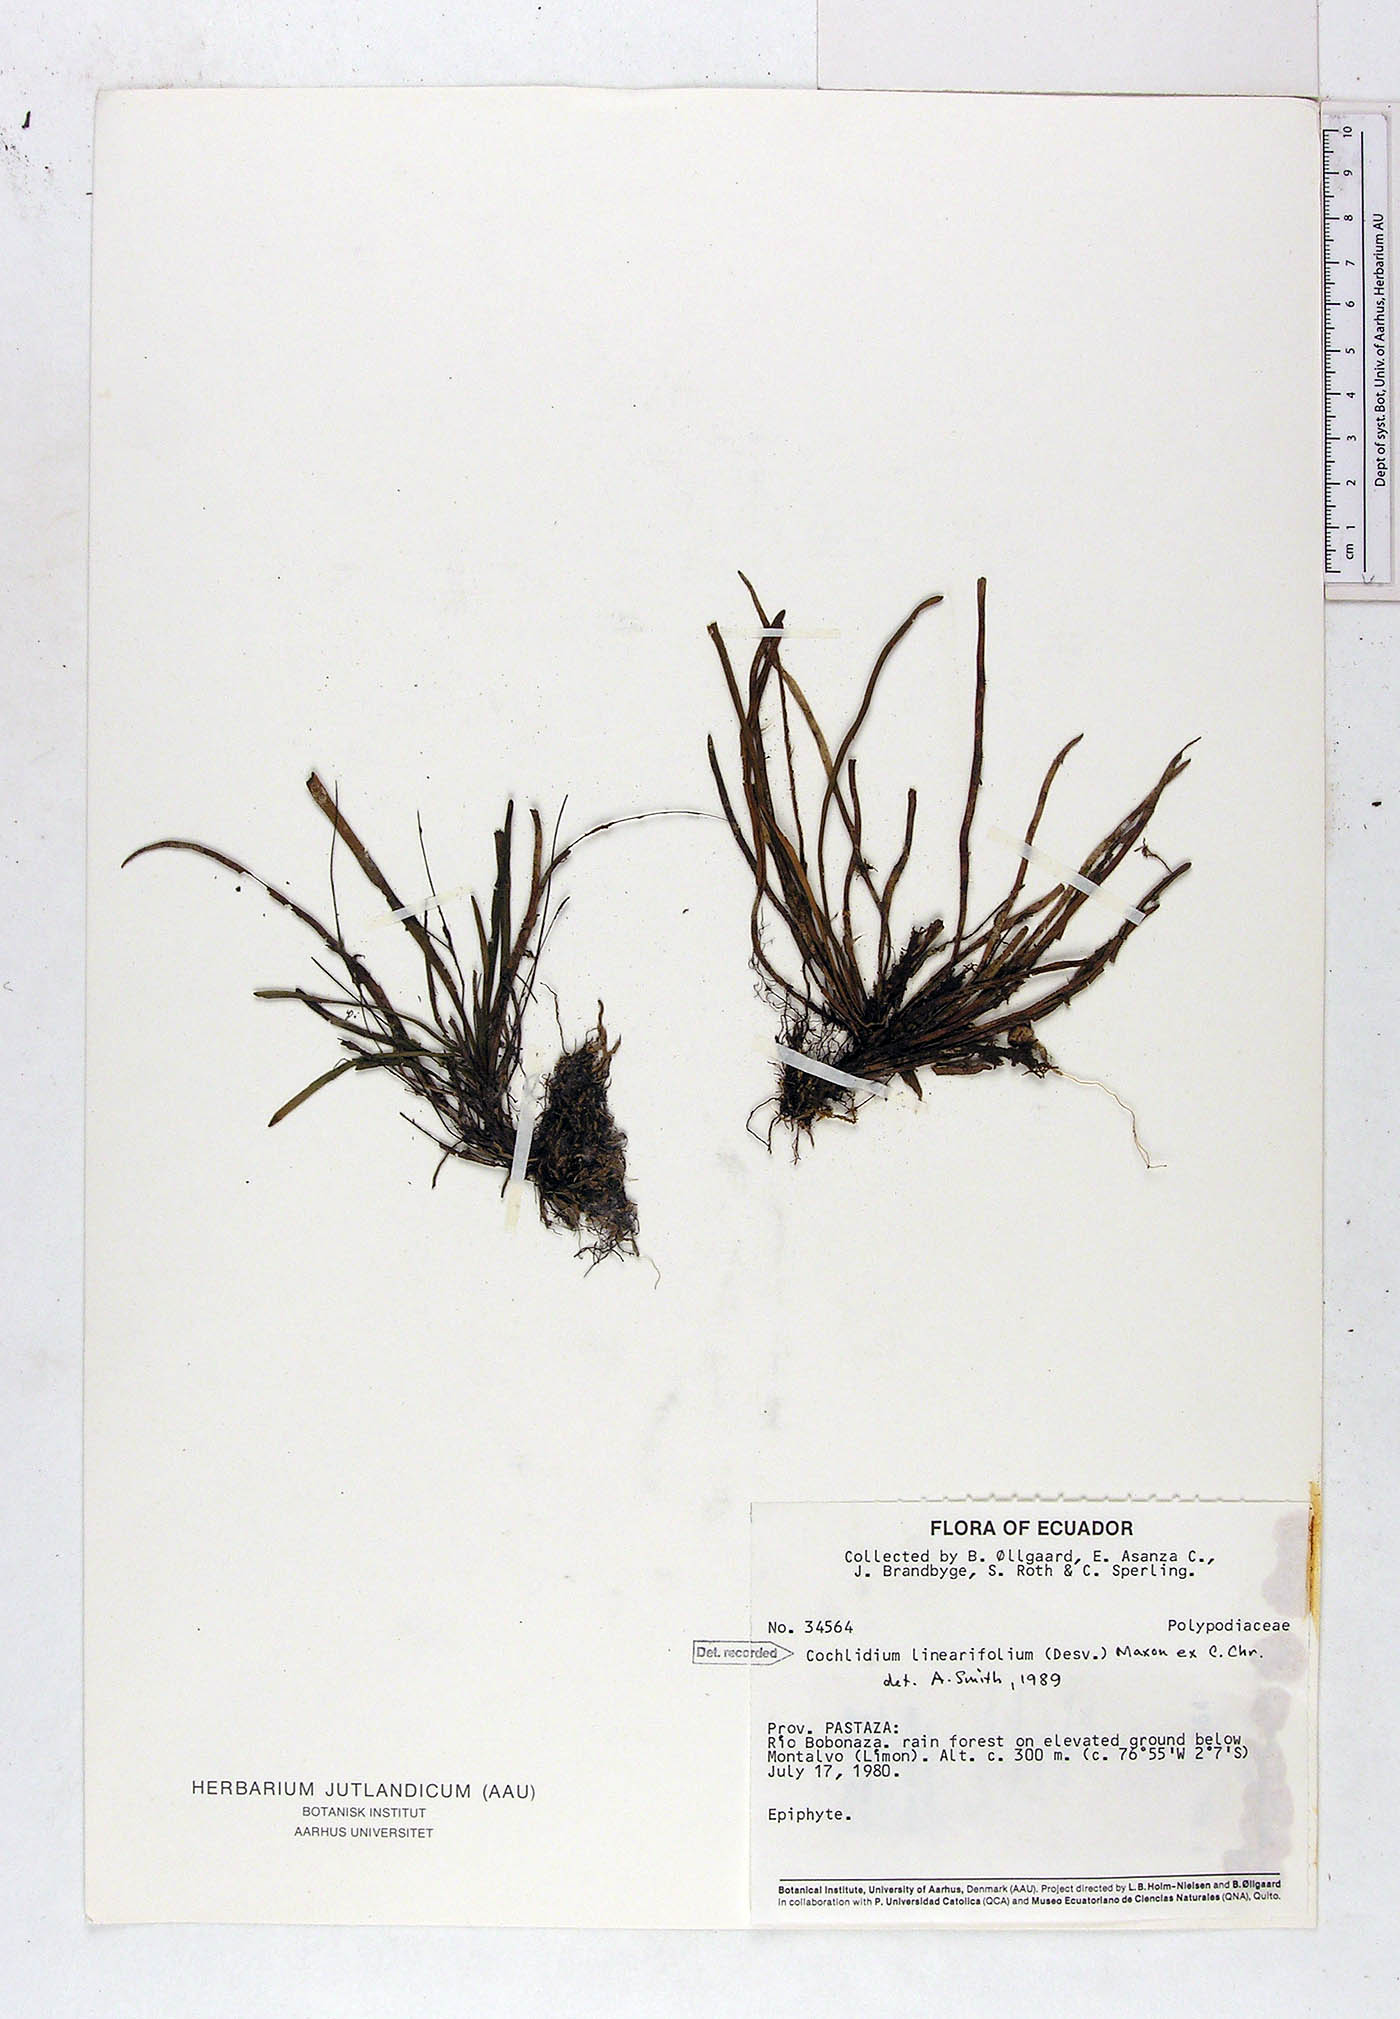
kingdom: Plantae
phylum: Tracheophyta
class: Polypodiopsida
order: Polypodiales
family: Polypodiaceae
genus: Cochlidium
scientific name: Cochlidium linearifolium
